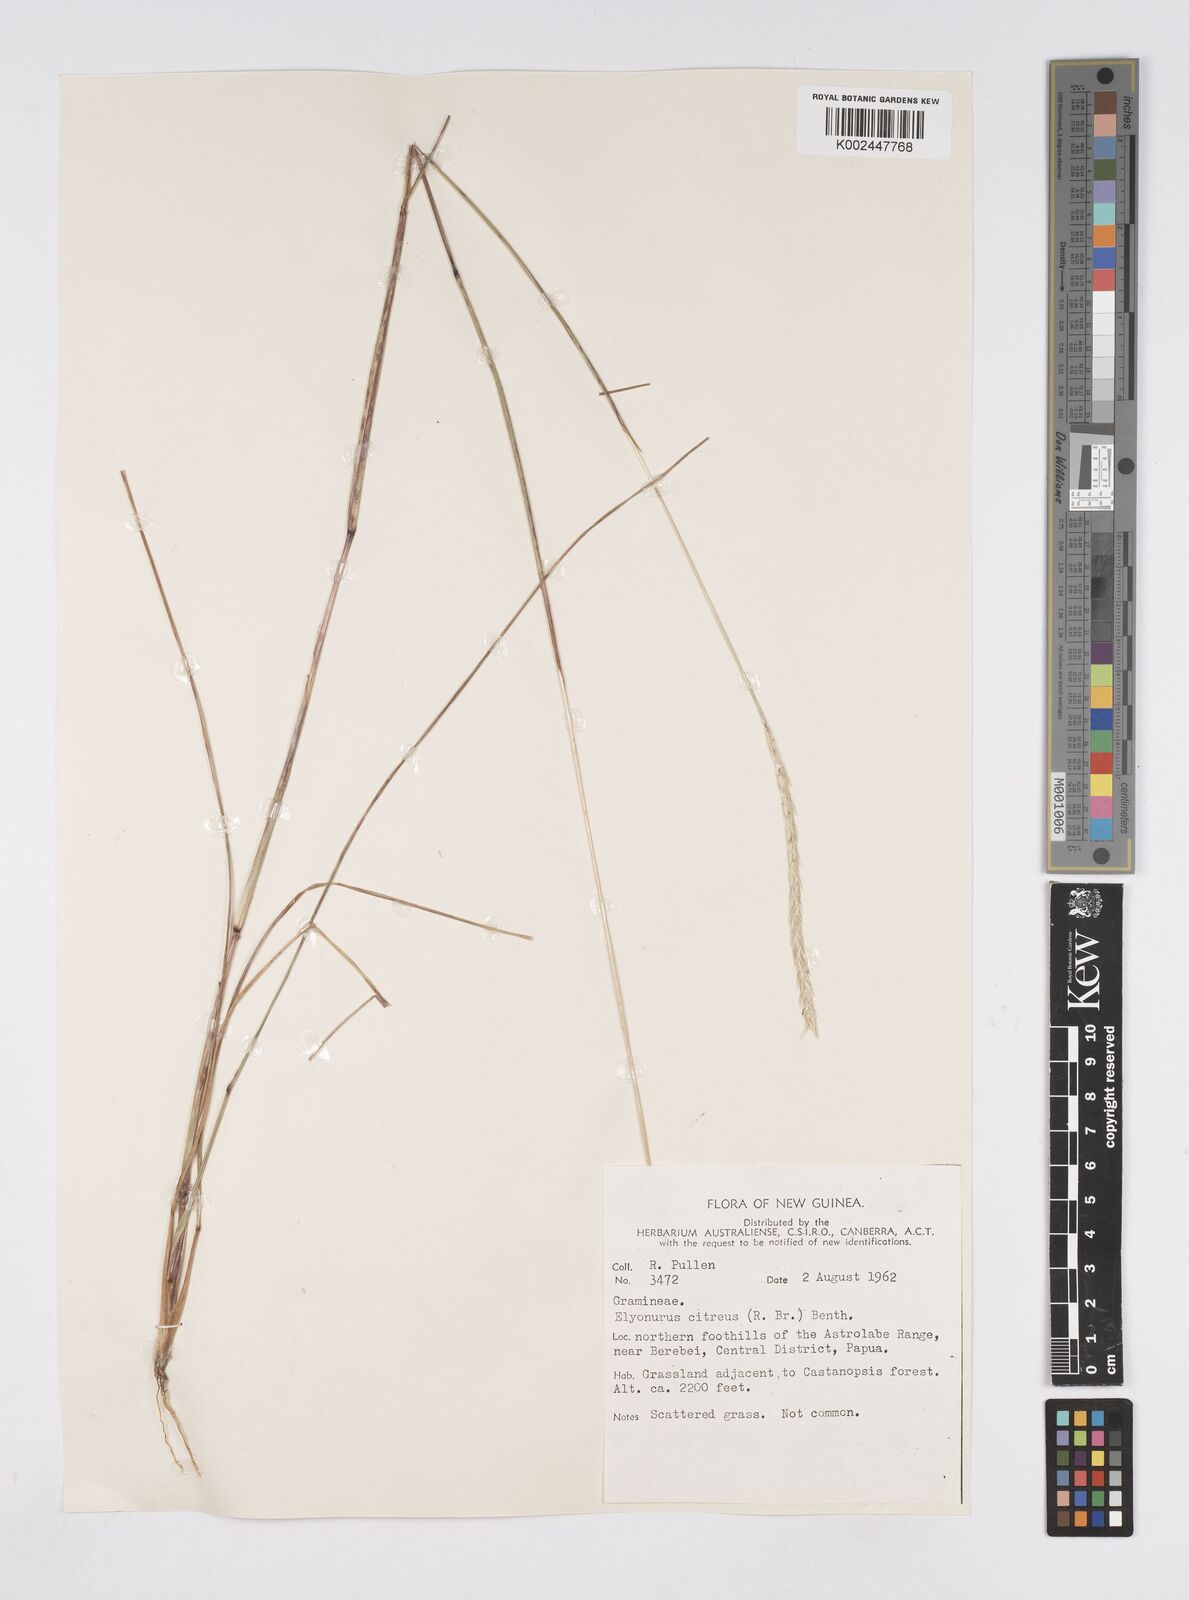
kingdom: Plantae
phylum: Tracheophyta
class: Liliopsida
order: Poales
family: Poaceae
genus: Elionurus
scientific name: Elionurus citreus
